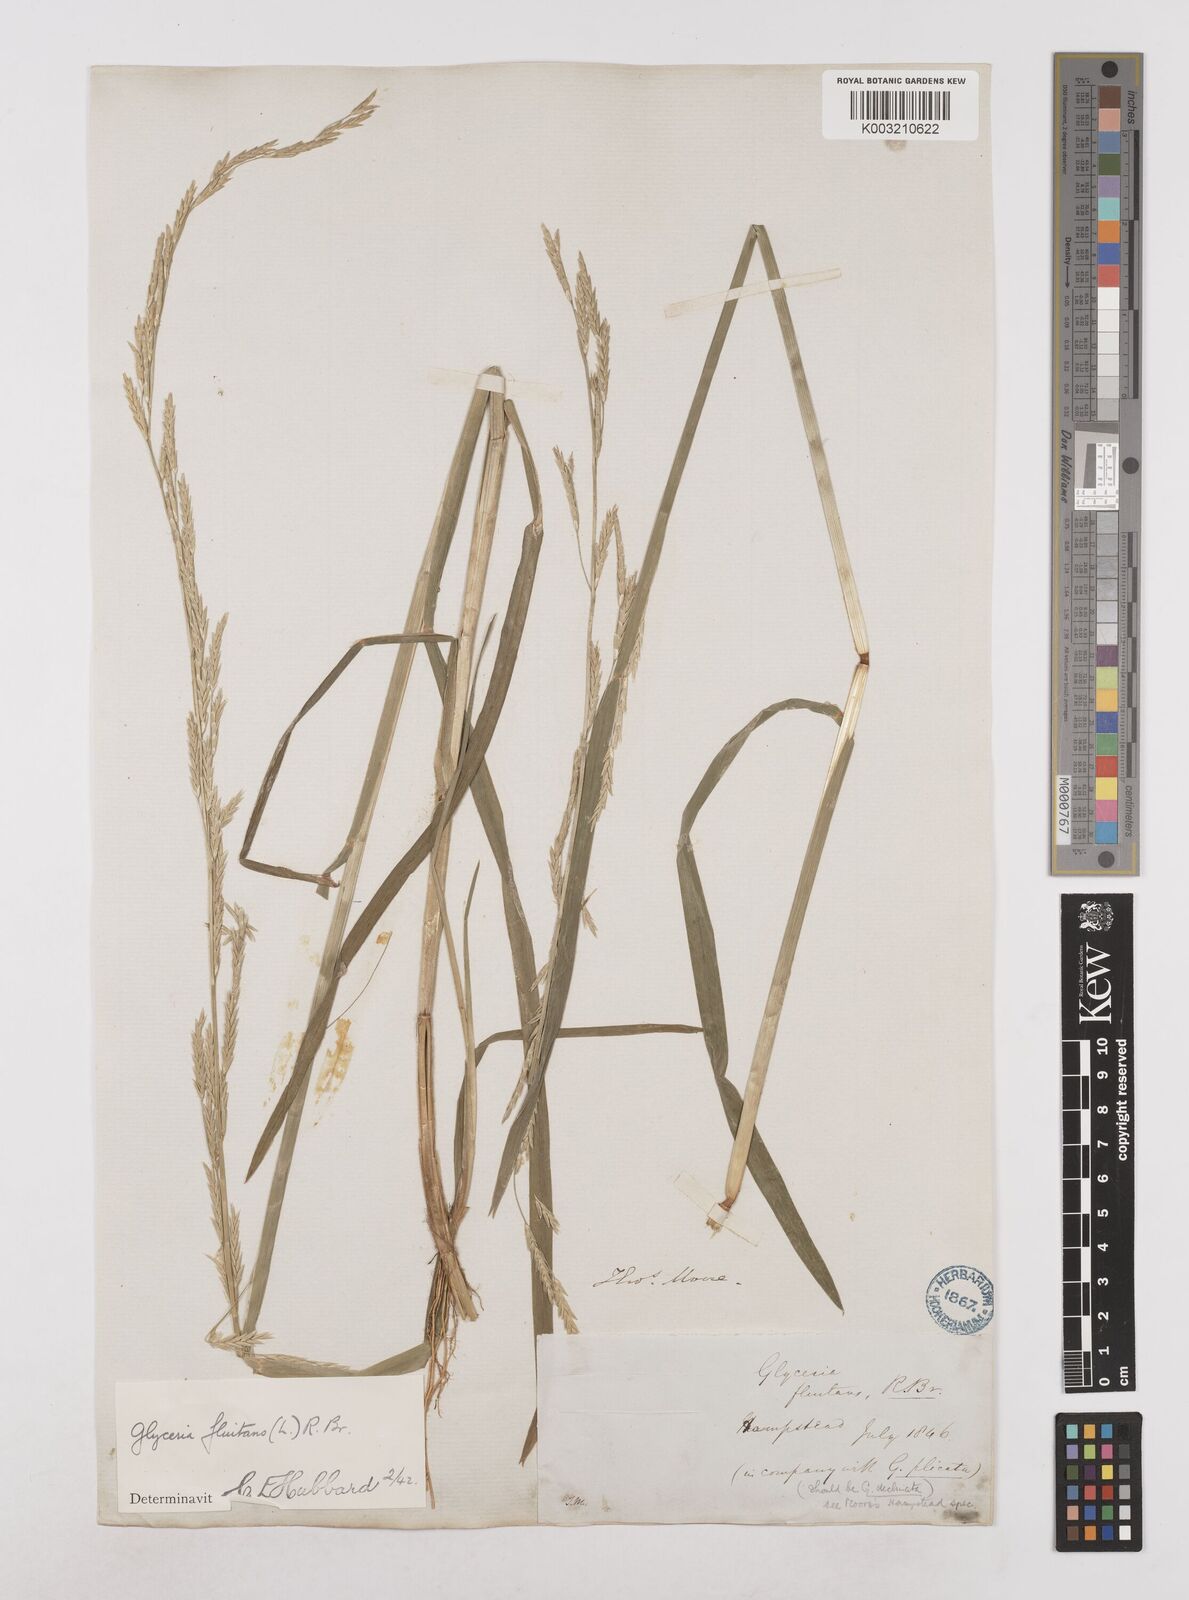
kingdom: Plantae
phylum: Tracheophyta
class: Liliopsida
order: Poales
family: Poaceae
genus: Glyceria
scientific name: Glyceria fluitans
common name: Floating sweet-grass
